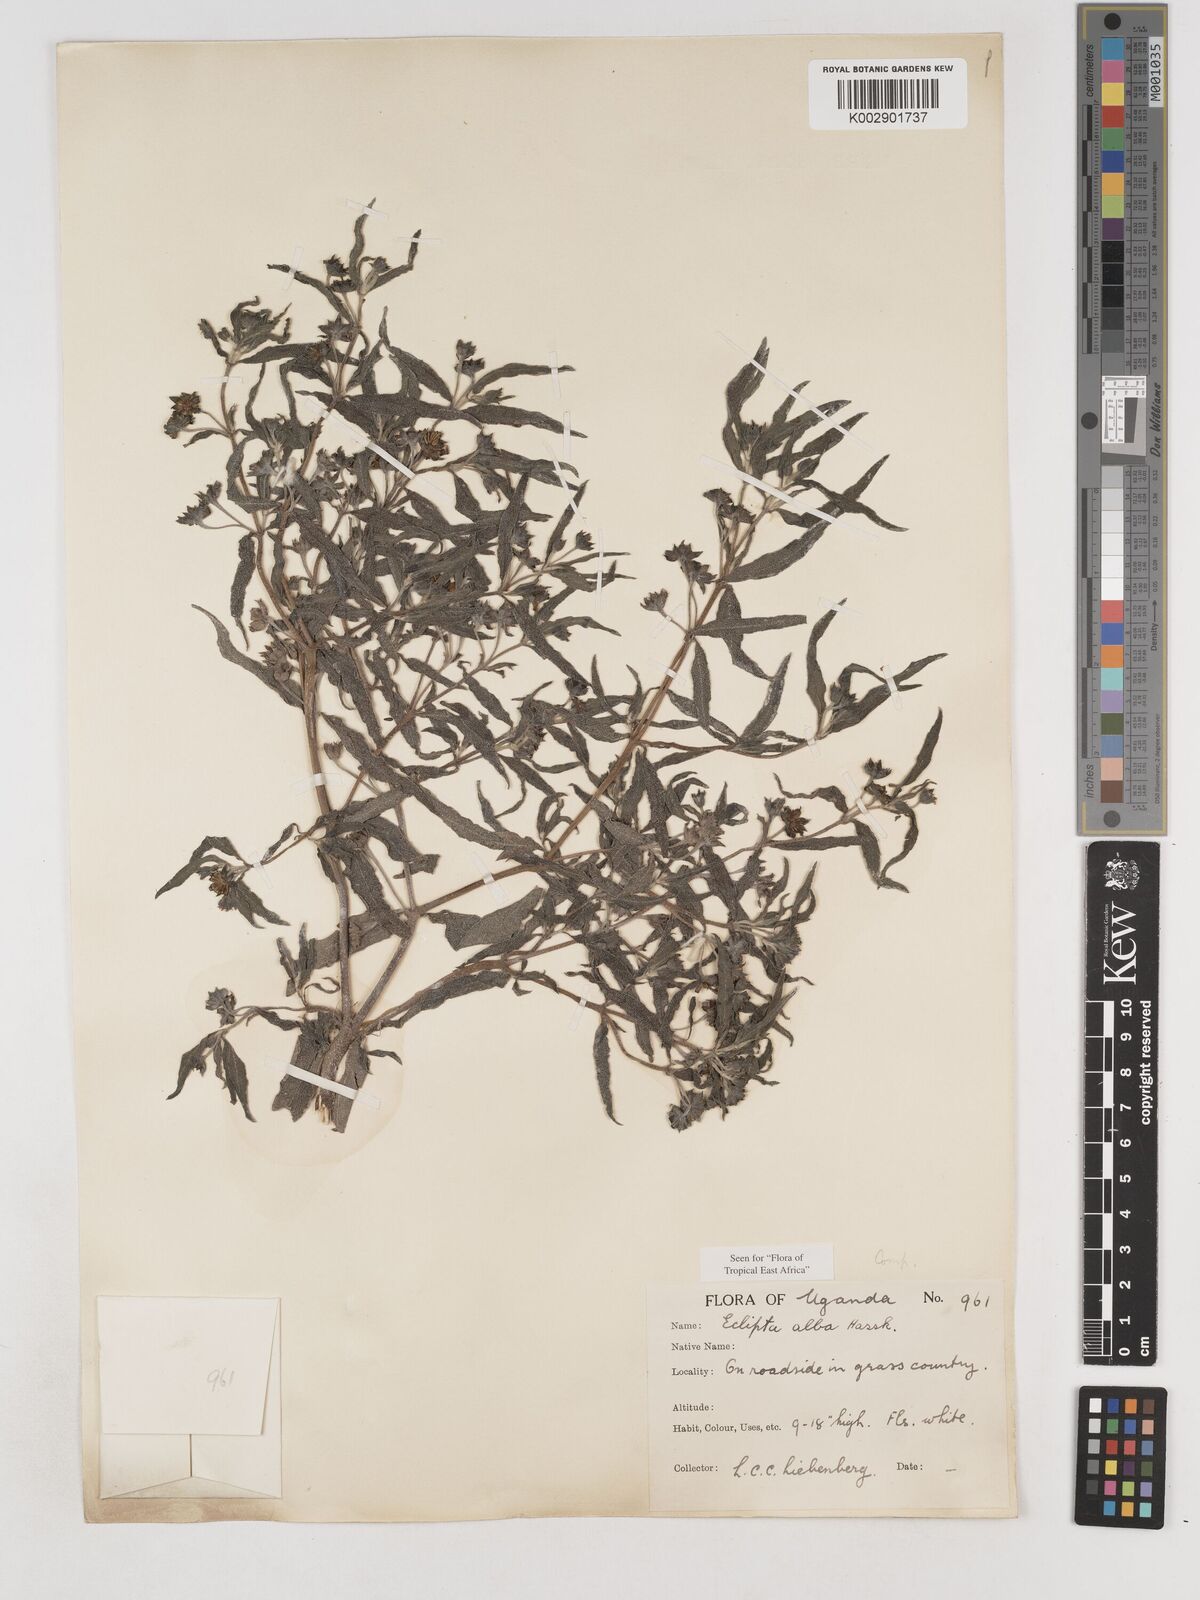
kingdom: Plantae
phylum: Tracheophyta
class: Magnoliopsida
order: Asterales
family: Asteraceae
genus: Eclipta
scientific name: Eclipta alba
